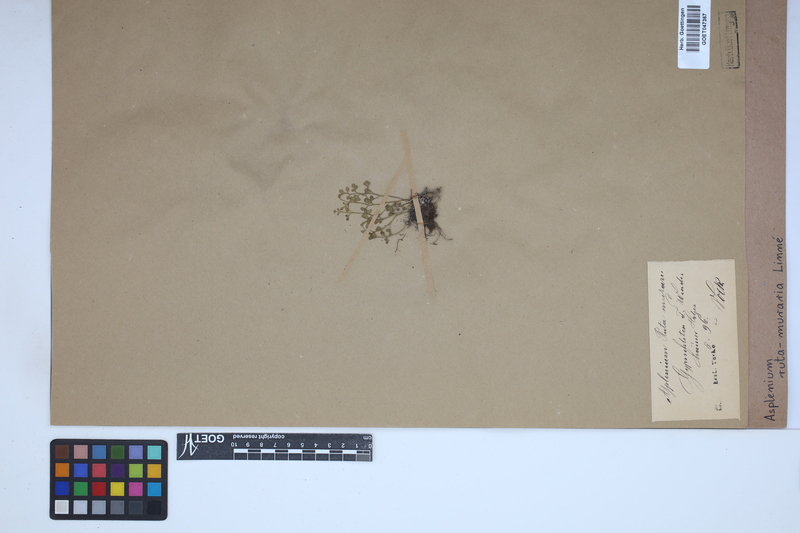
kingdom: Plantae
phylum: Tracheophyta
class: Polypodiopsida
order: Polypodiales
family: Aspleniaceae
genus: Asplenium
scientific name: Asplenium ruta-muraria
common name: Wall-rue
